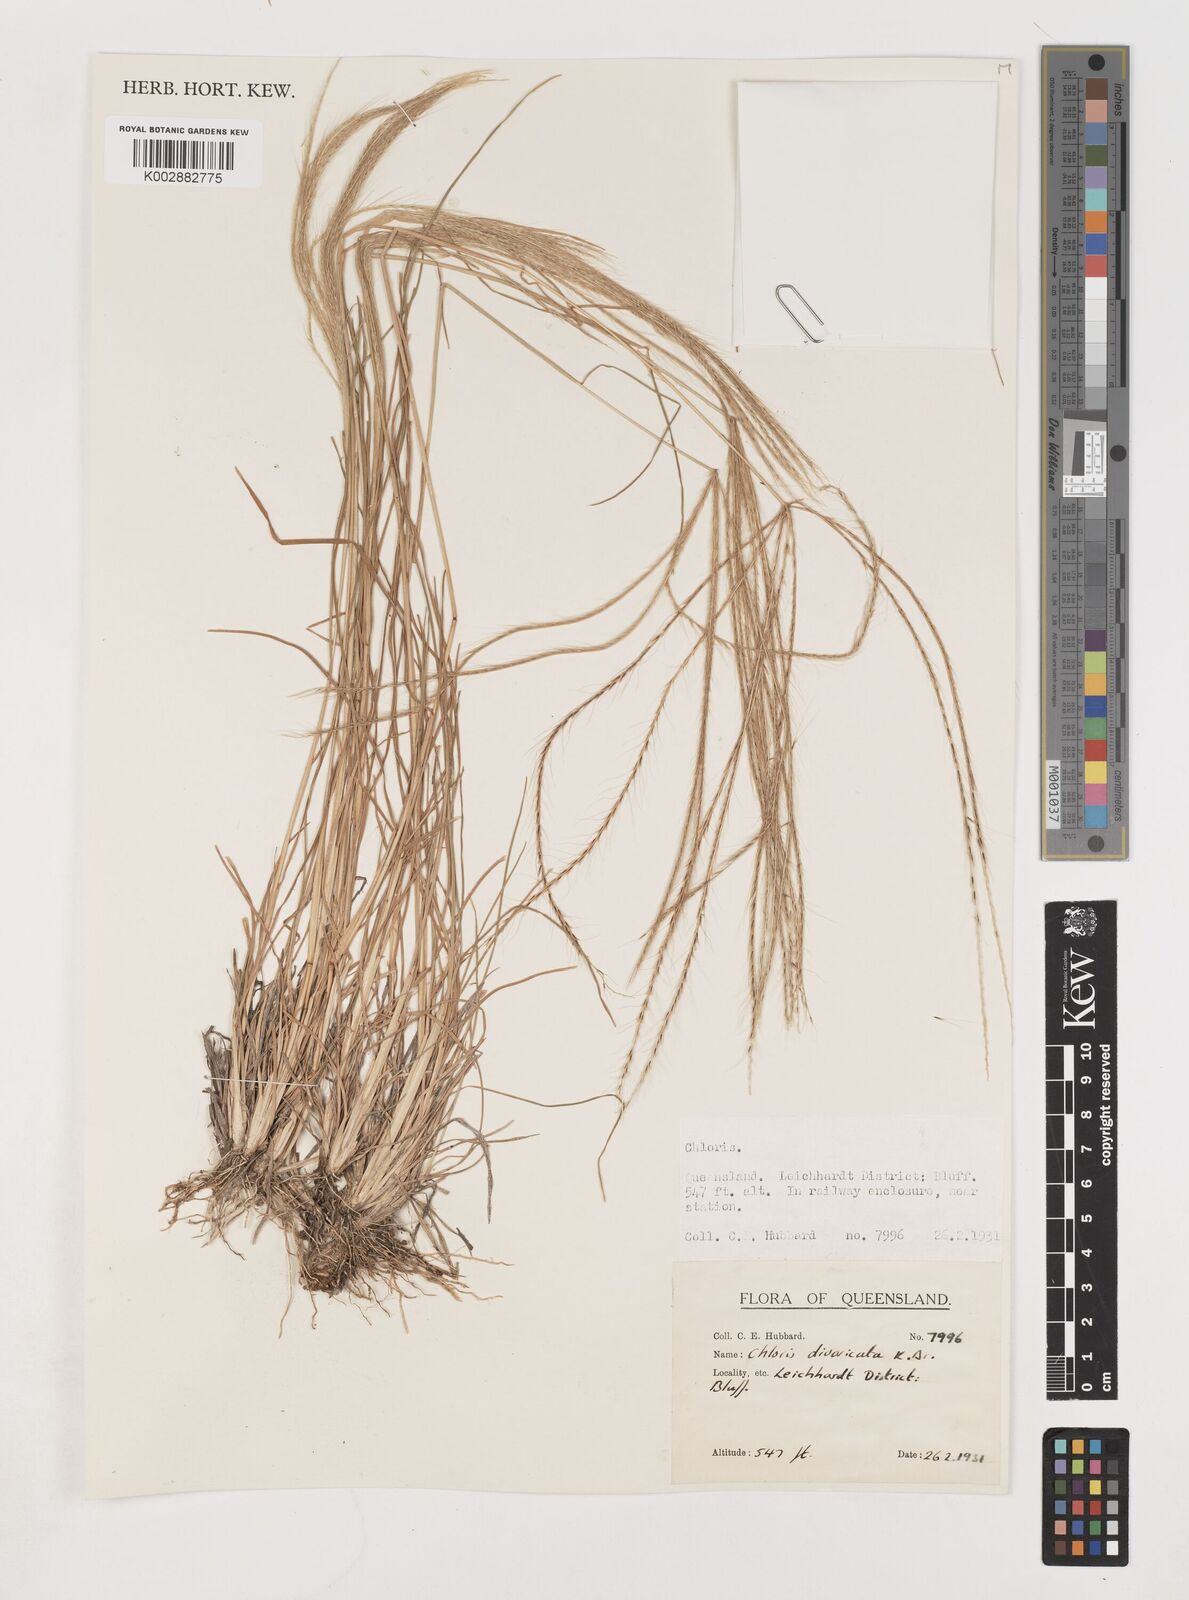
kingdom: Plantae
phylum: Tracheophyta
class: Liliopsida
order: Poales
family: Poaceae
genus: Chloris
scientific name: Chloris divaricata
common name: Spreading windmill grass
